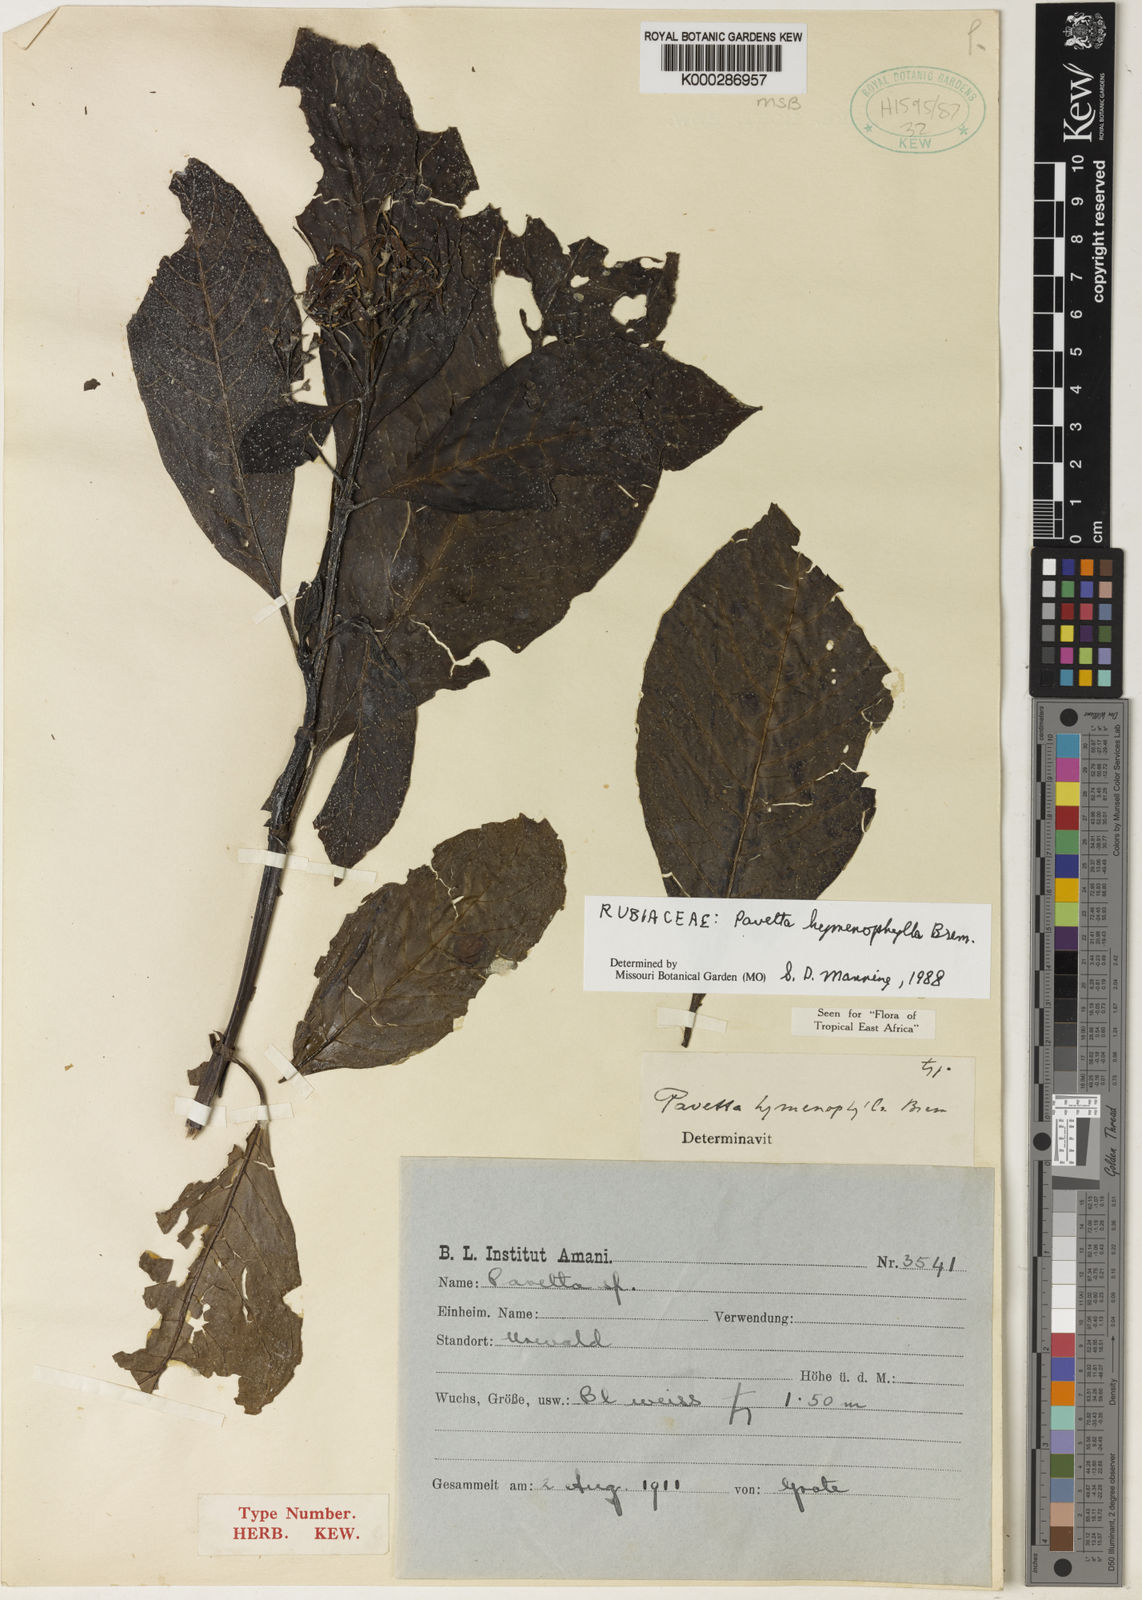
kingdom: Plantae
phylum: Tracheophyta
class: Magnoliopsida
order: Gentianales
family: Rubiaceae
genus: Pavetta
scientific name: Pavetta hymenophylla
